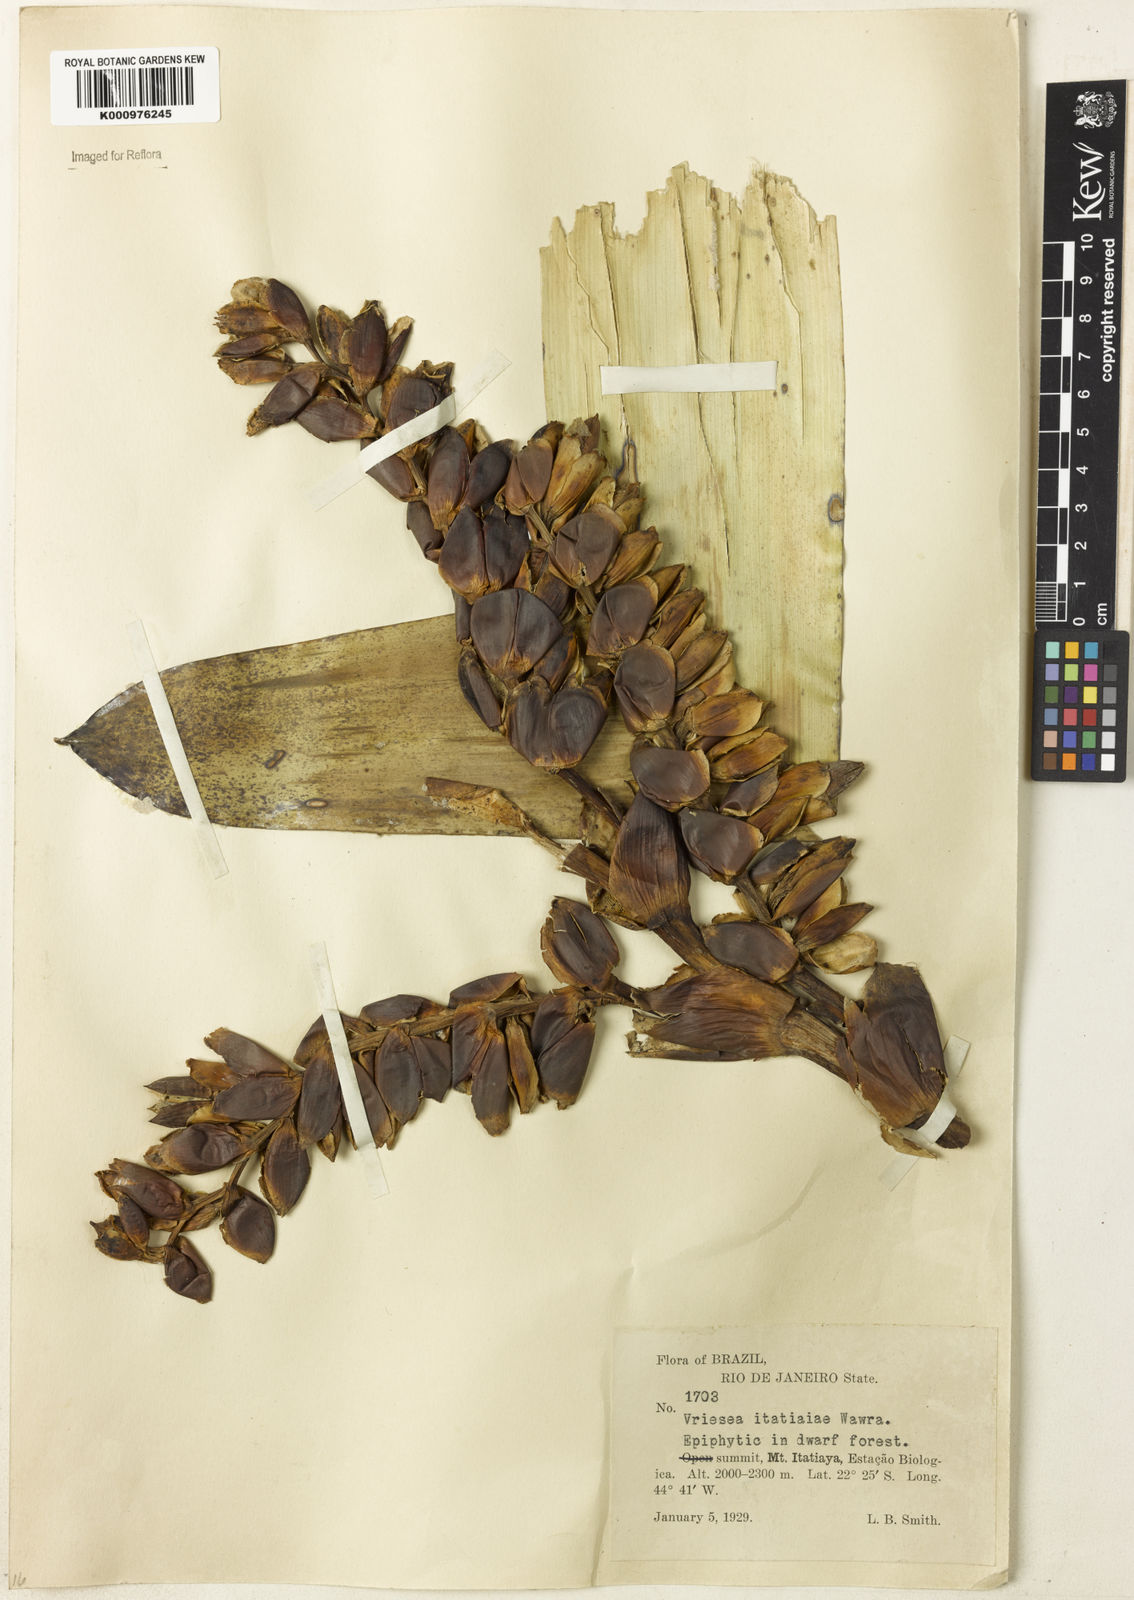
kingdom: Plantae
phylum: Tracheophyta
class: Liliopsida
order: Poales
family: Bromeliaceae
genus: Vriesea
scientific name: Vriesea itatiaiae
